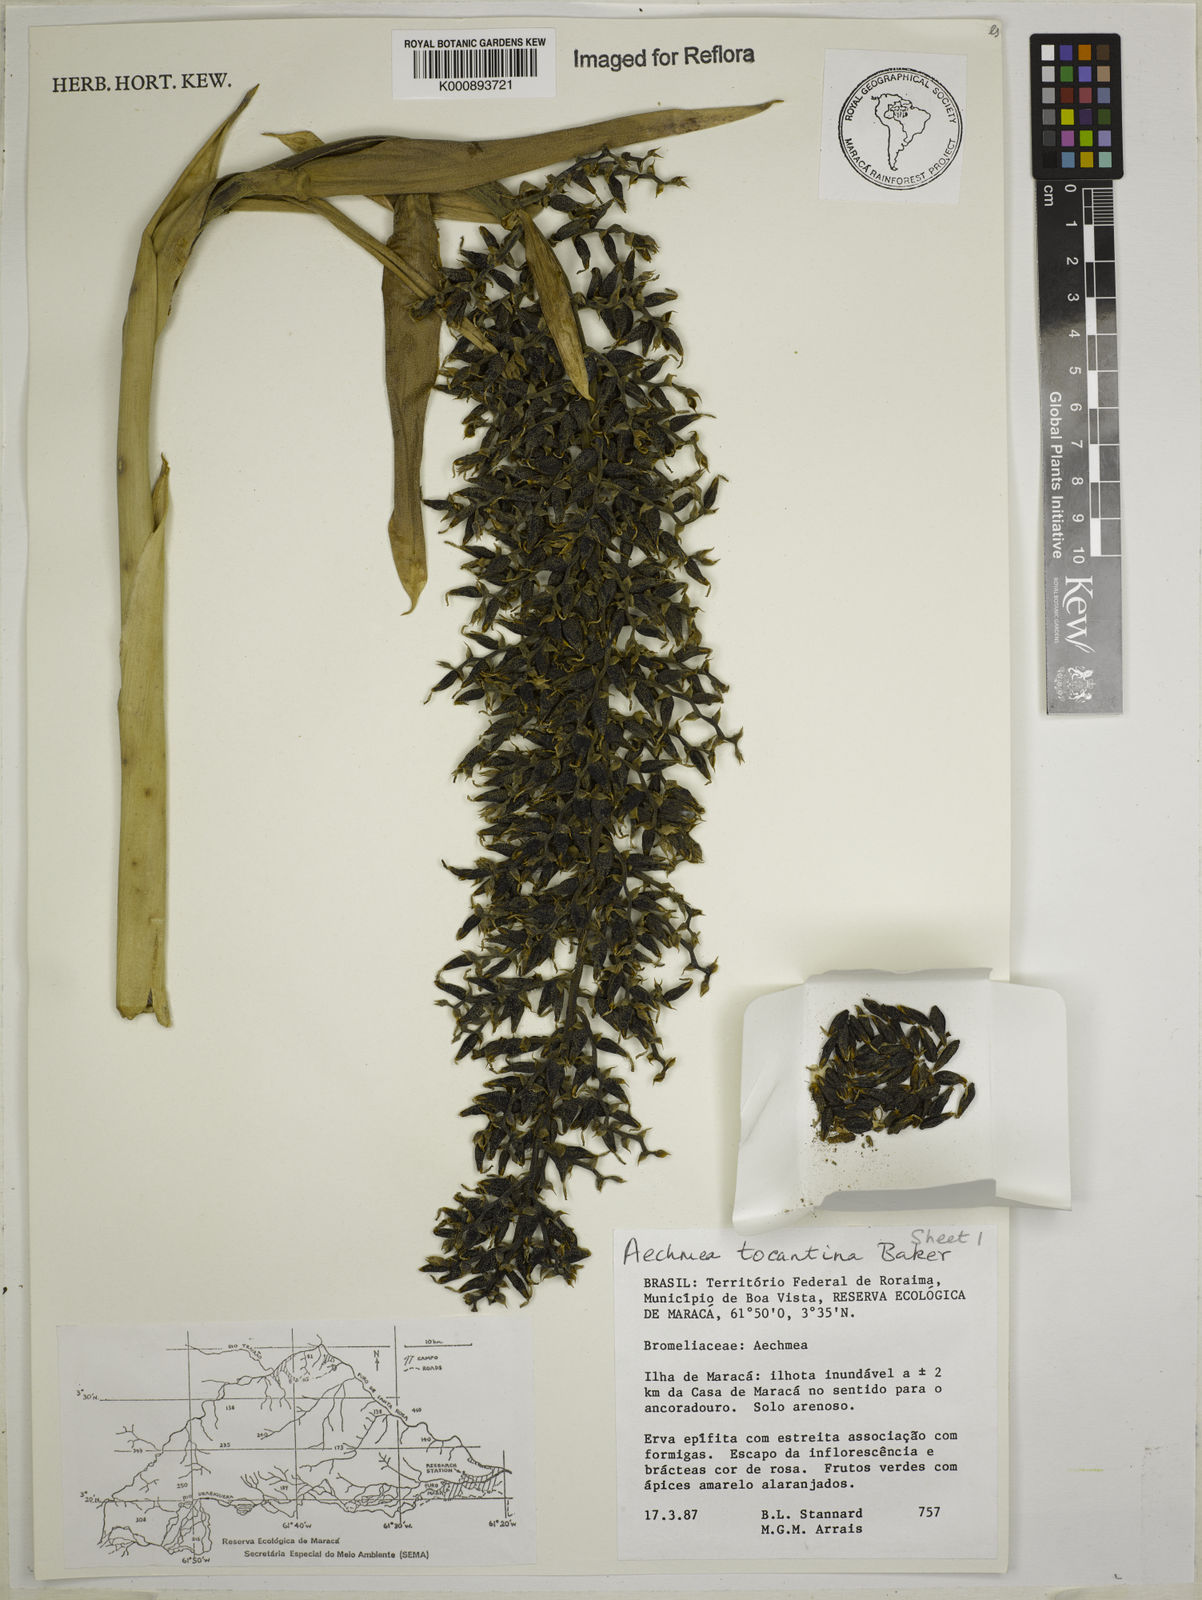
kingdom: Plantae
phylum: Tracheophyta
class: Liliopsida
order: Poales
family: Bromeliaceae
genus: Aechmea
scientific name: Aechmea tocantina
